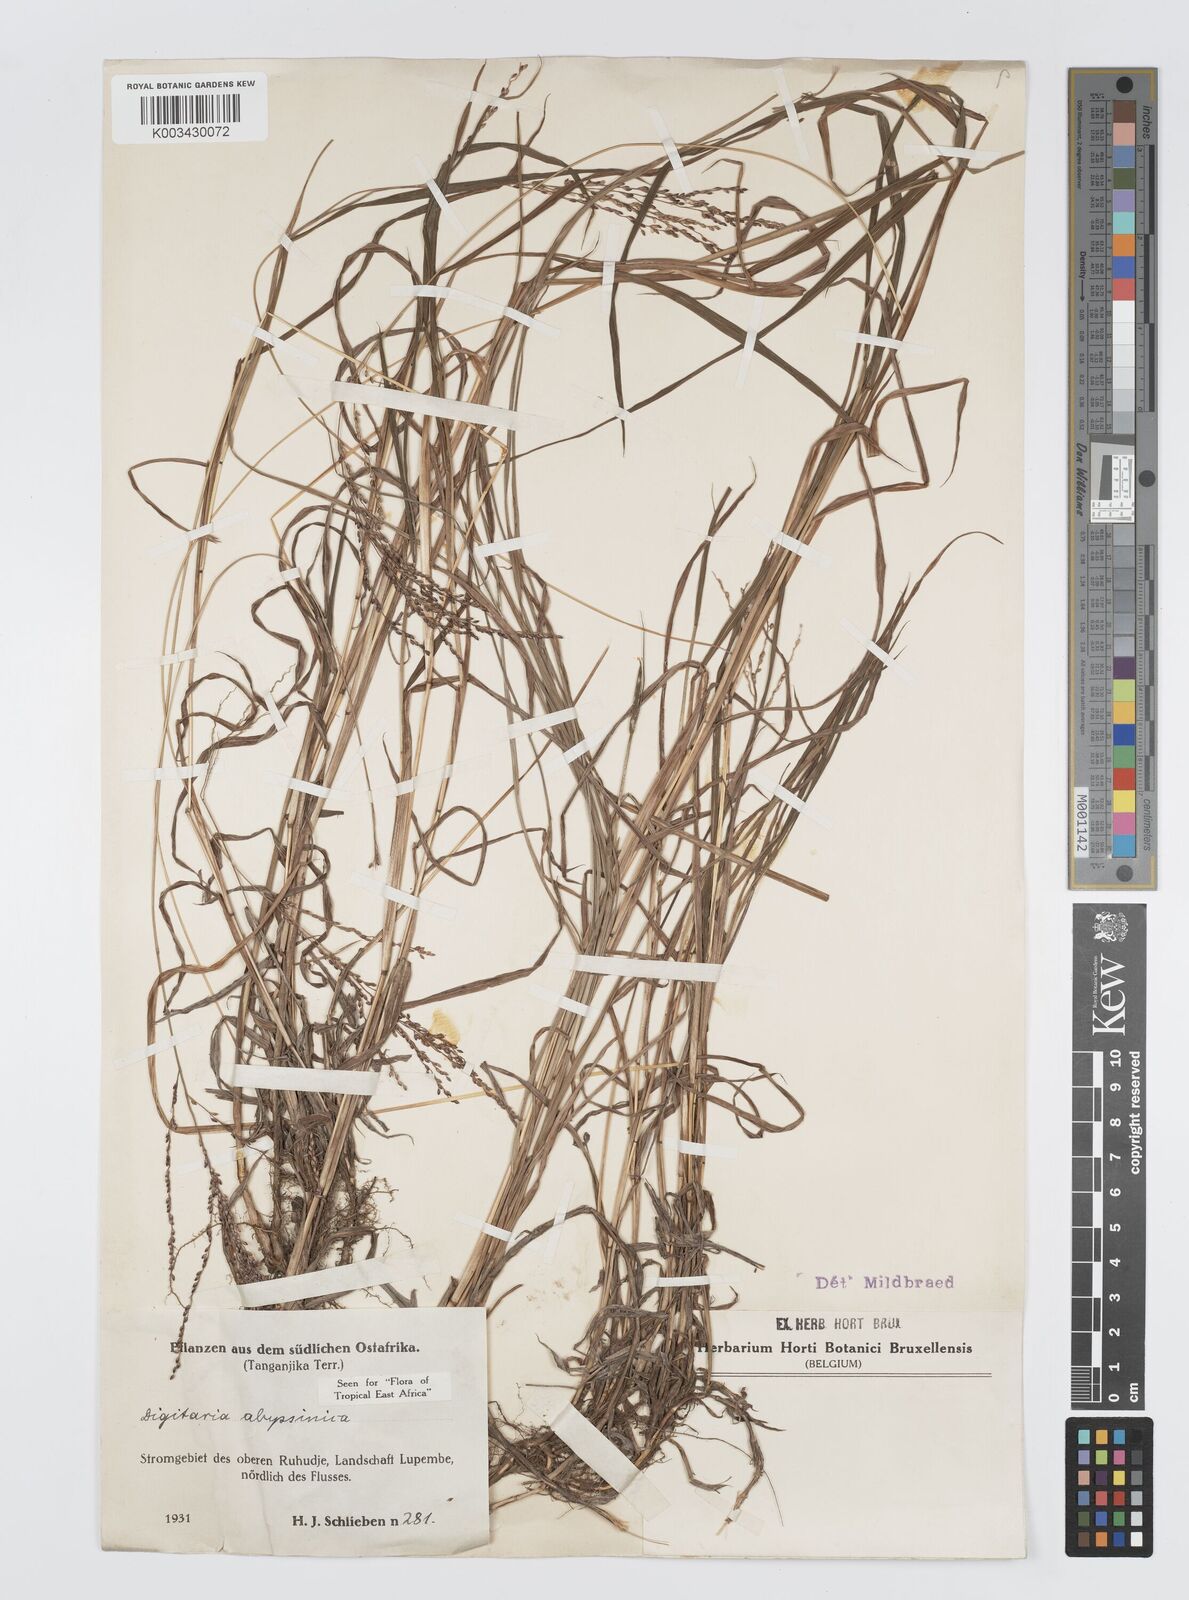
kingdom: Plantae
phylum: Tracheophyta
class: Liliopsida
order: Poales
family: Poaceae
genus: Digitaria
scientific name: Digitaria abyssinica
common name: African couchgrass
